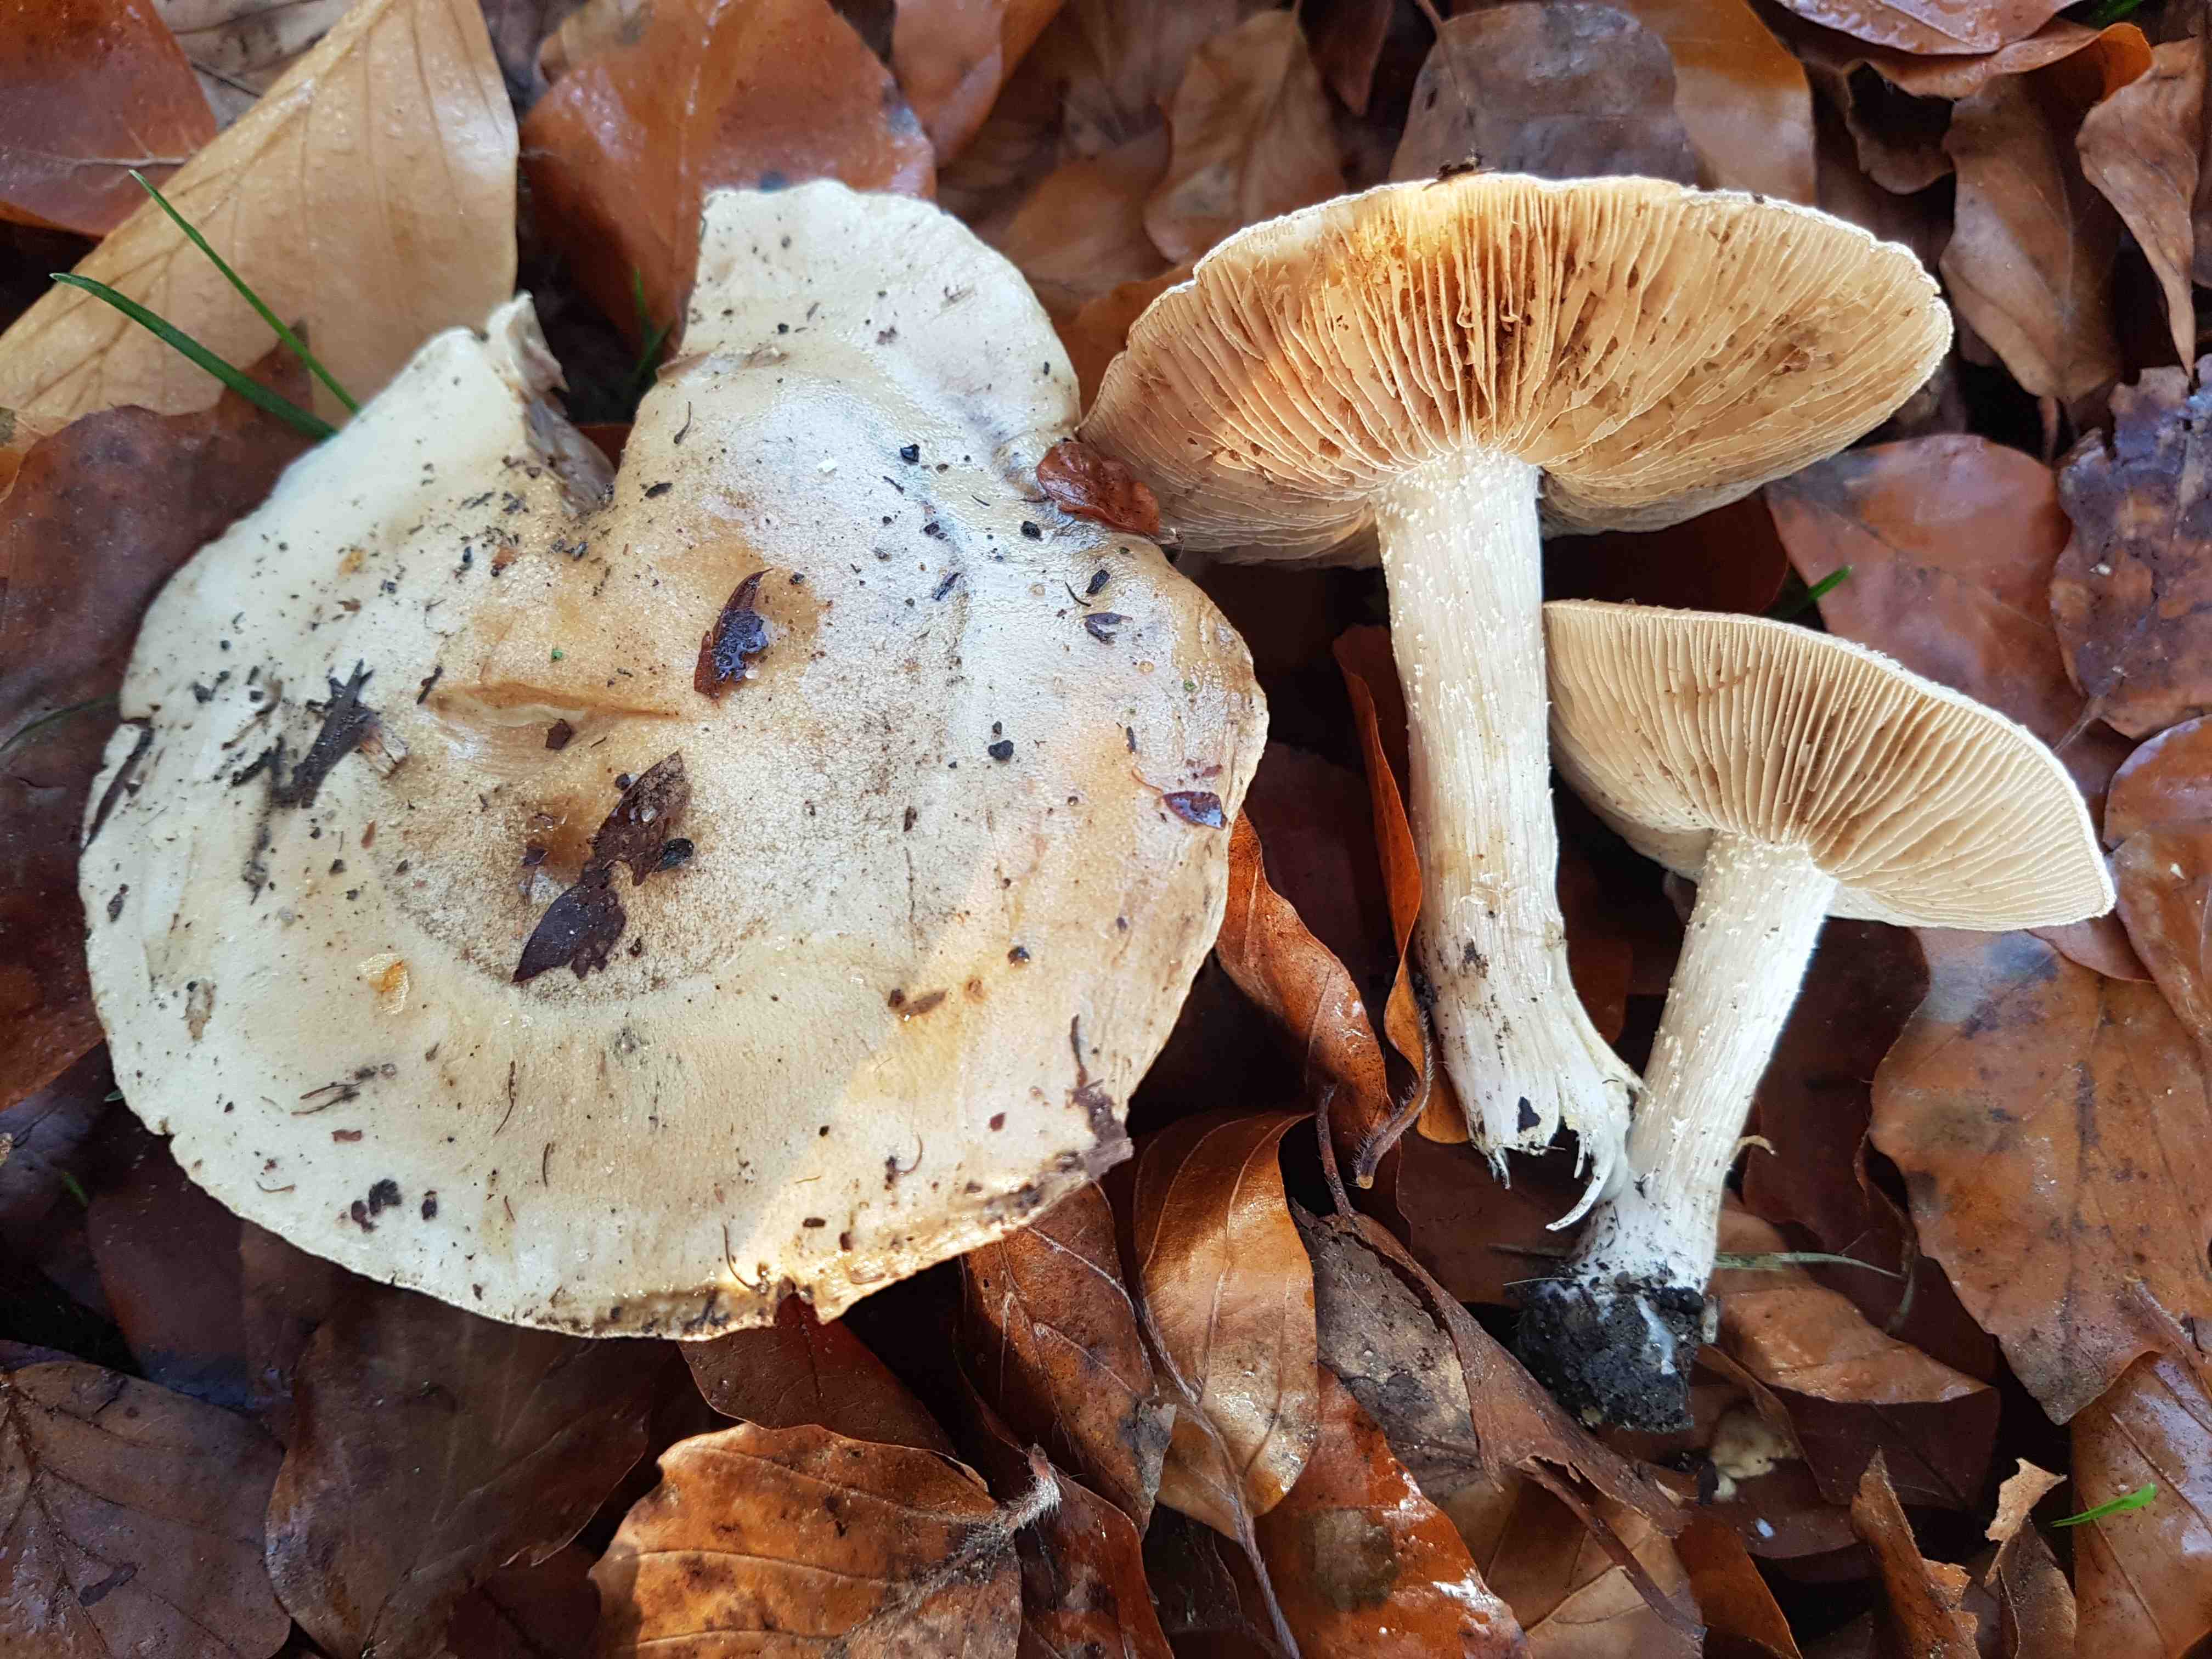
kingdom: Fungi
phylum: Basidiomycota
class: Agaricomycetes
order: Agaricales
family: Hymenogastraceae
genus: Hebeloma
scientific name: Hebeloma sinapizans
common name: ræddike-tåreblad
